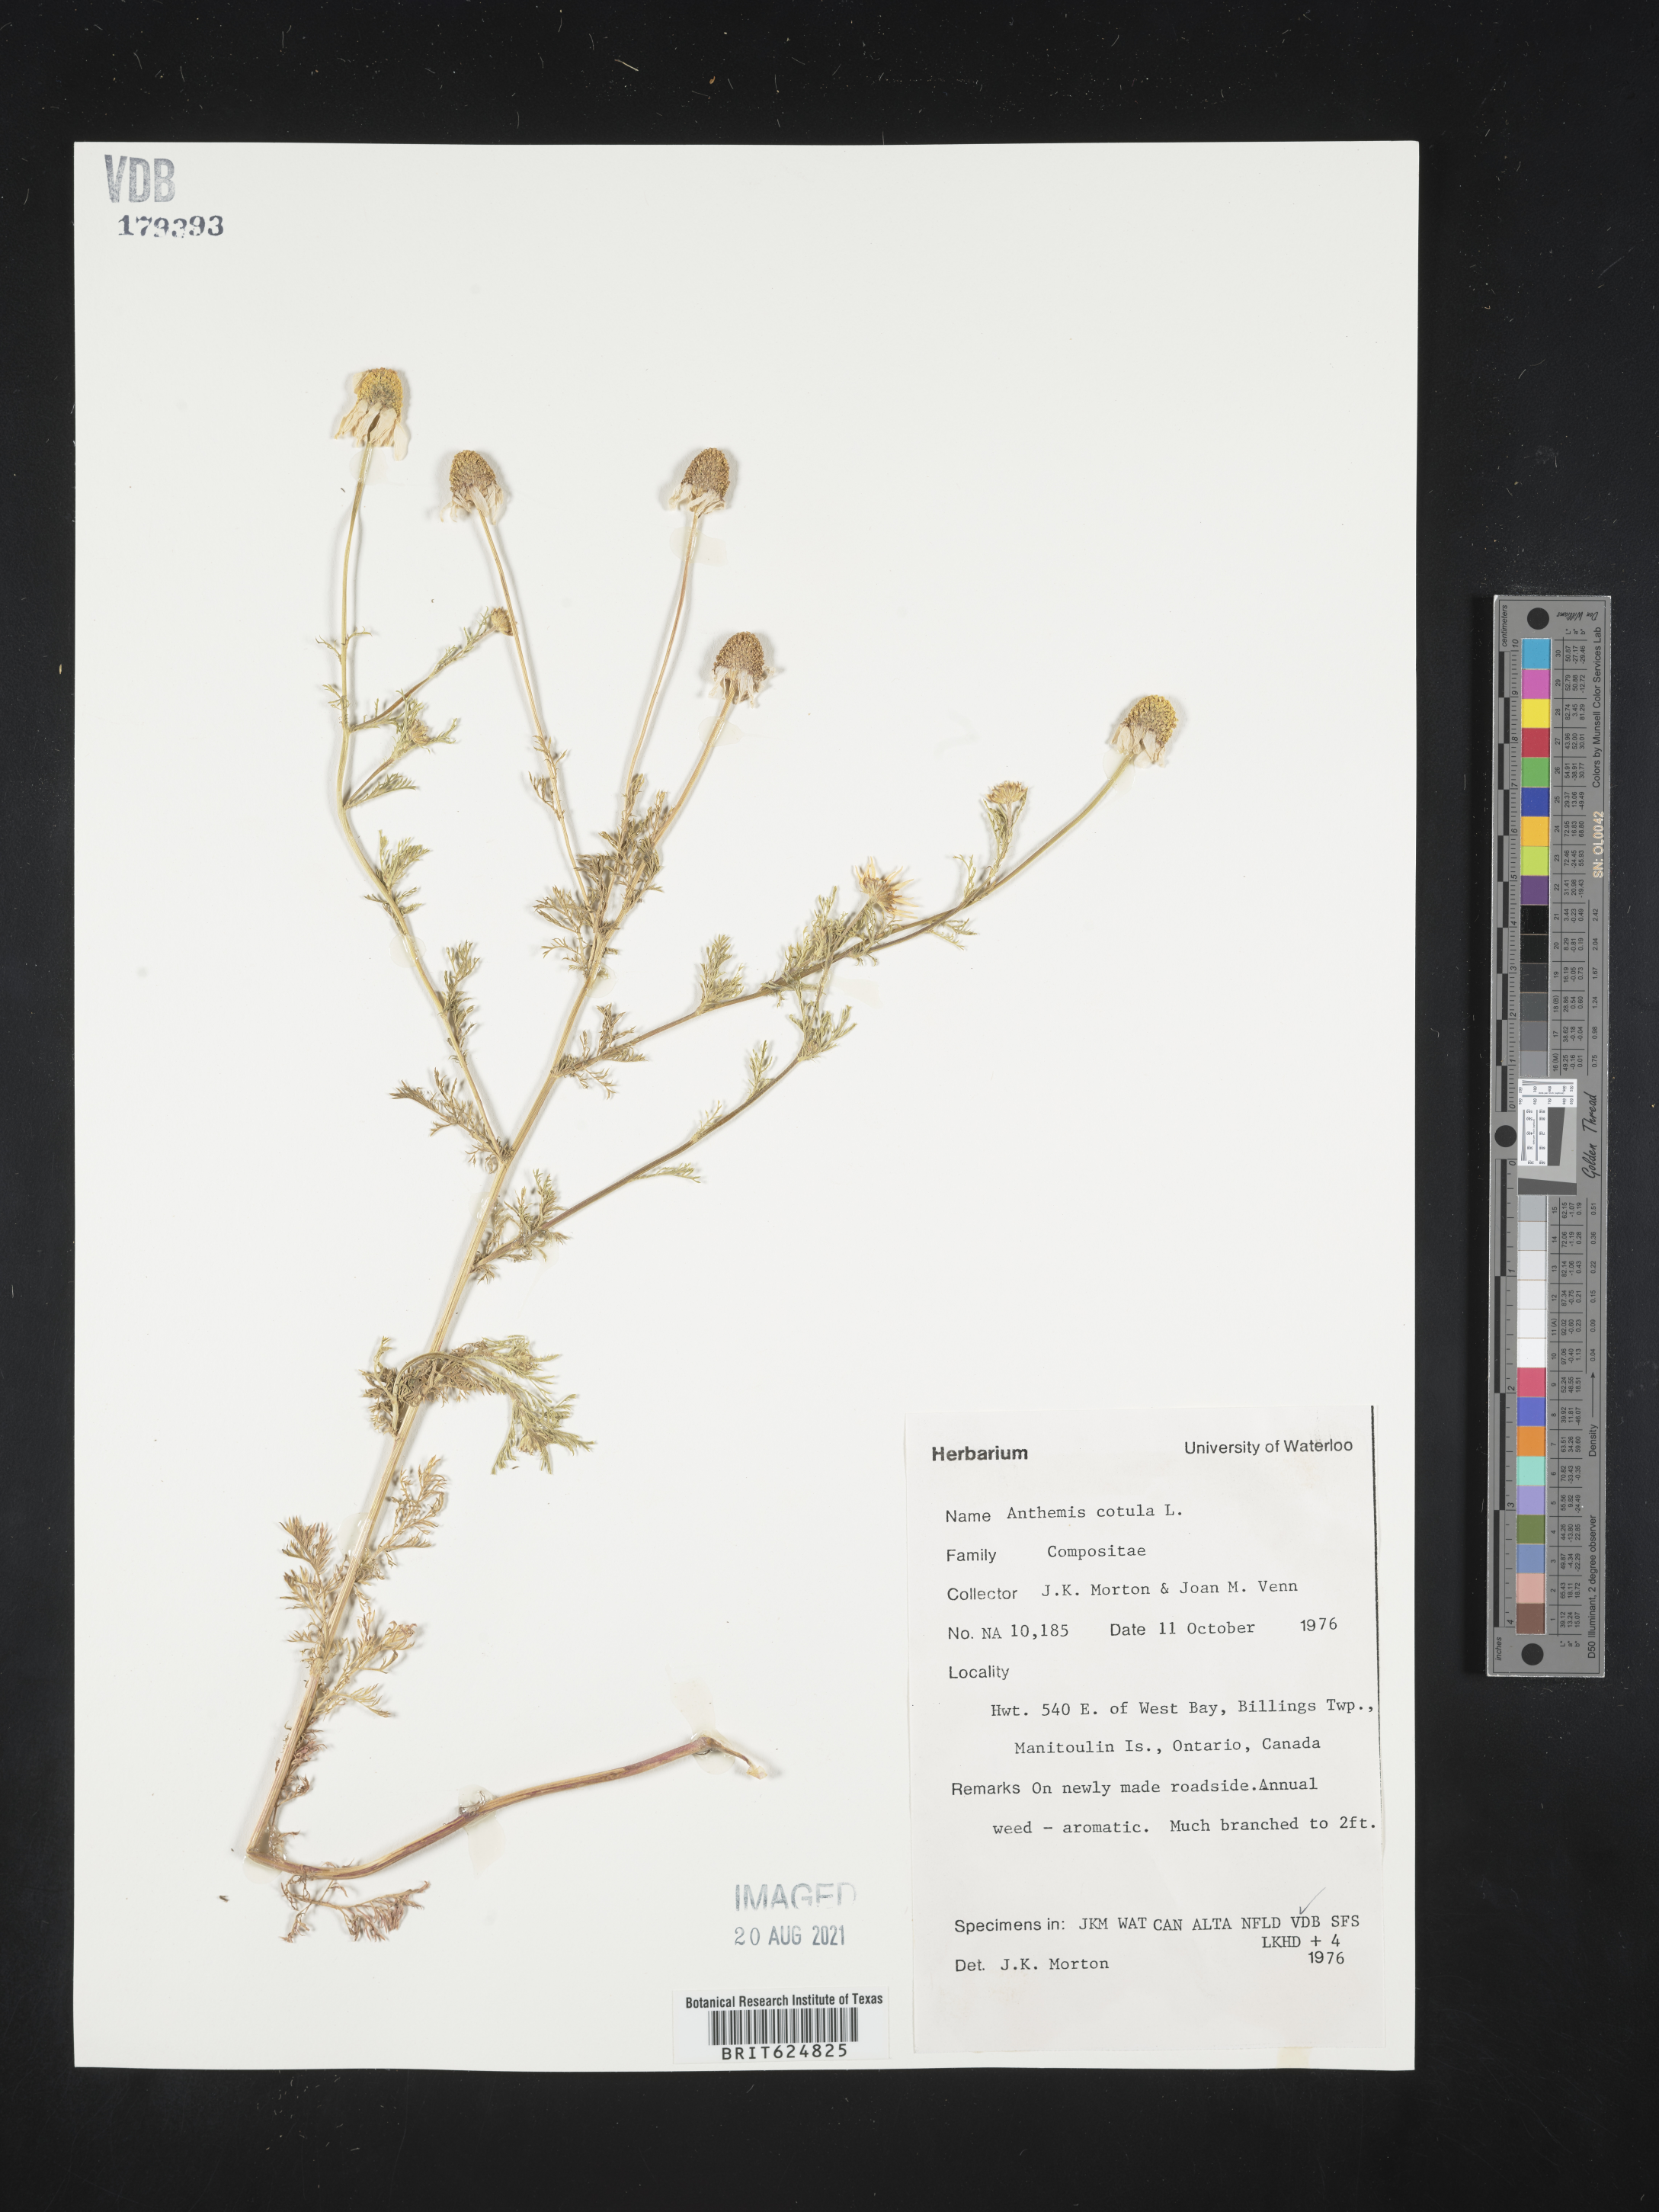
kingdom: Plantae
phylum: Tracheophyta
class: Magnoliopsida
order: Asterales
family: Asteraceae
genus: Anthemis
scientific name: Anthemis cotula
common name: Stinking chamomile
